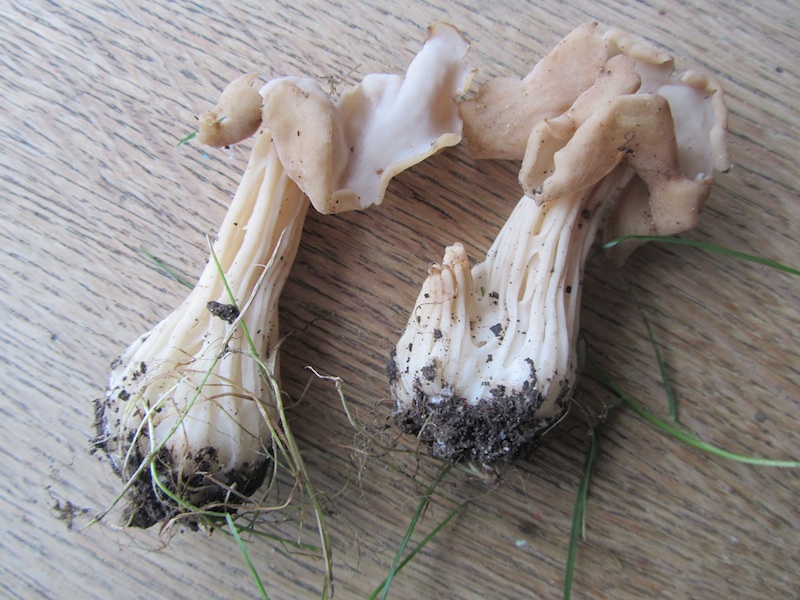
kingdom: Fungi
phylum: Ascomycota
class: Pezizomycetes
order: Pezizales
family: Helvellaceae
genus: Helvella
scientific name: Helvella crispa
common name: kruset foldhat
